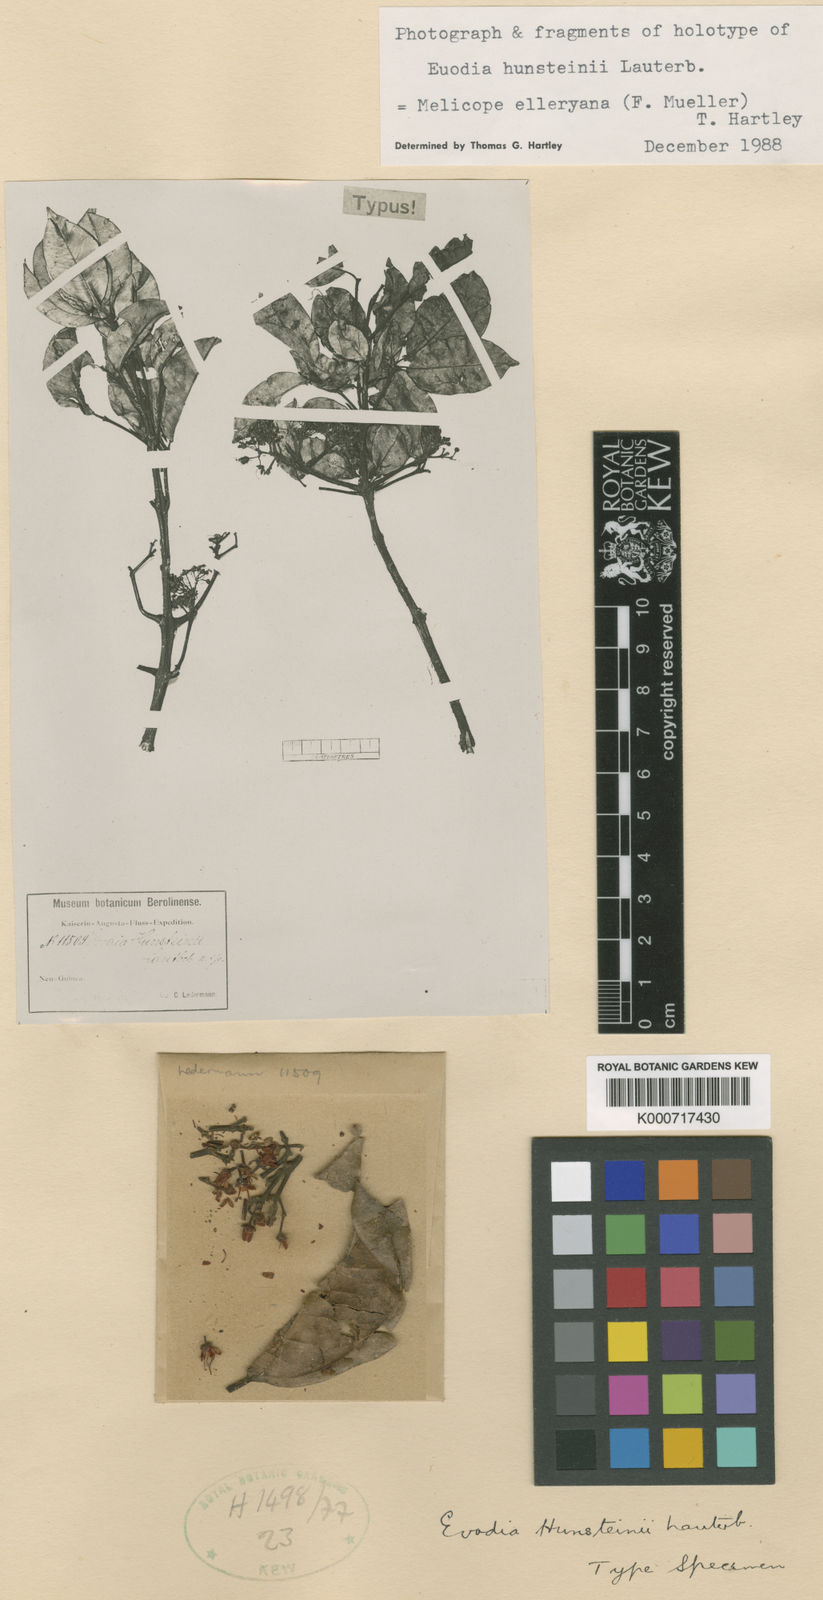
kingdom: Plantae
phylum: Tracheophyta
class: Magnoliopsida
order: Sapindales
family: Rutaceae
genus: Melicope
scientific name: Melicope elleryana
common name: Pink euodia
